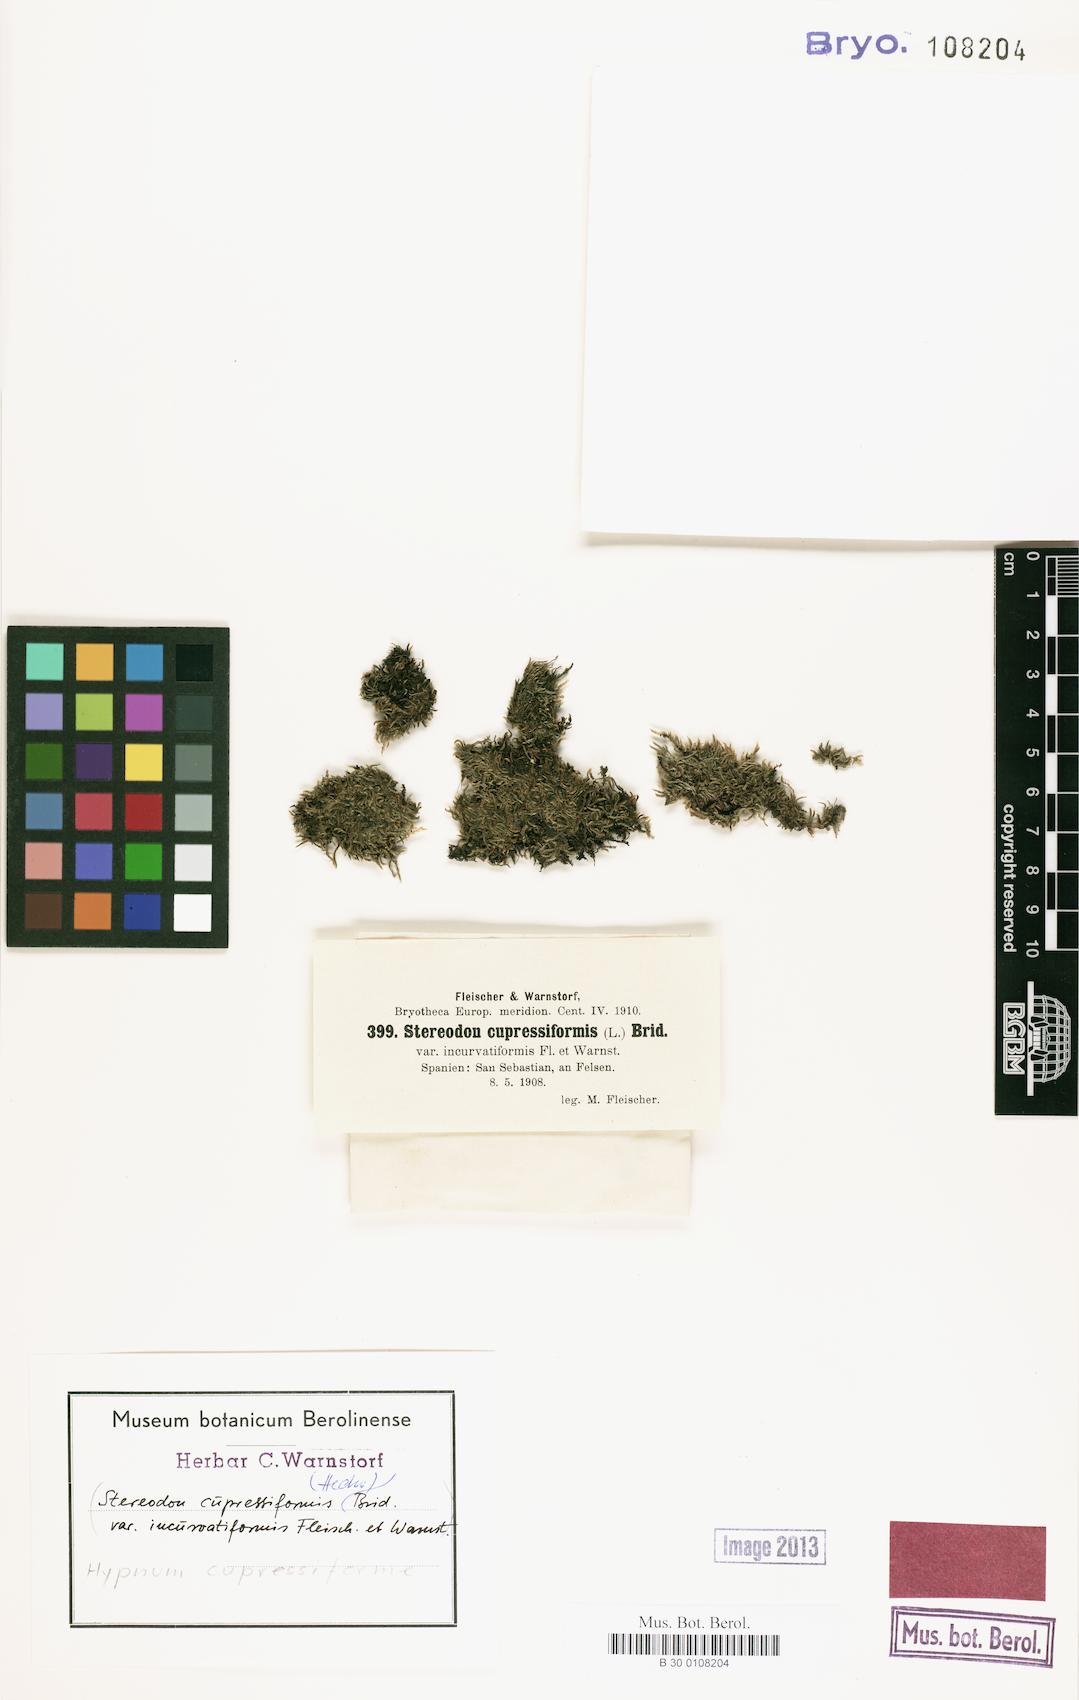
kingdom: Plantae
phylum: Bryophyta
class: Bryopsida
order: Hypnales
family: Hypnaceae
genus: Hypnum
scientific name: Hypnum cupressiforme
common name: Cypress-leaved plait-moss
